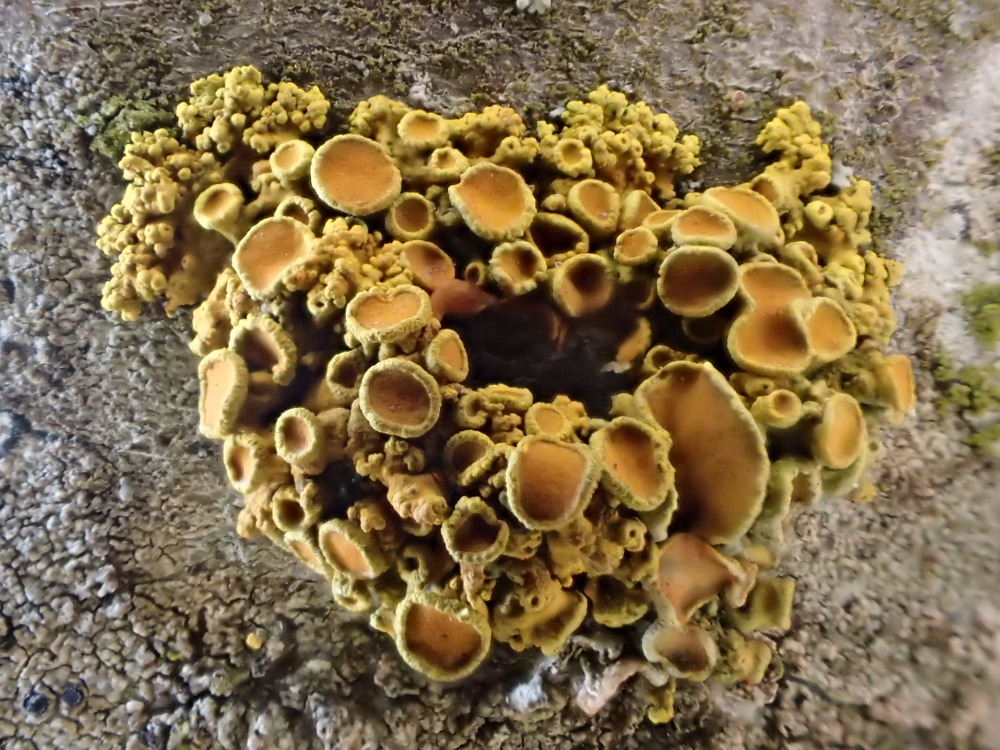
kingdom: Fungi
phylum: Ascomycota
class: Lecanoromycetes
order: Teloschistales
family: Teloschistaceae
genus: Polycauliona
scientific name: Polycauliona polycarpa
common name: mangefrugtet orangelav
